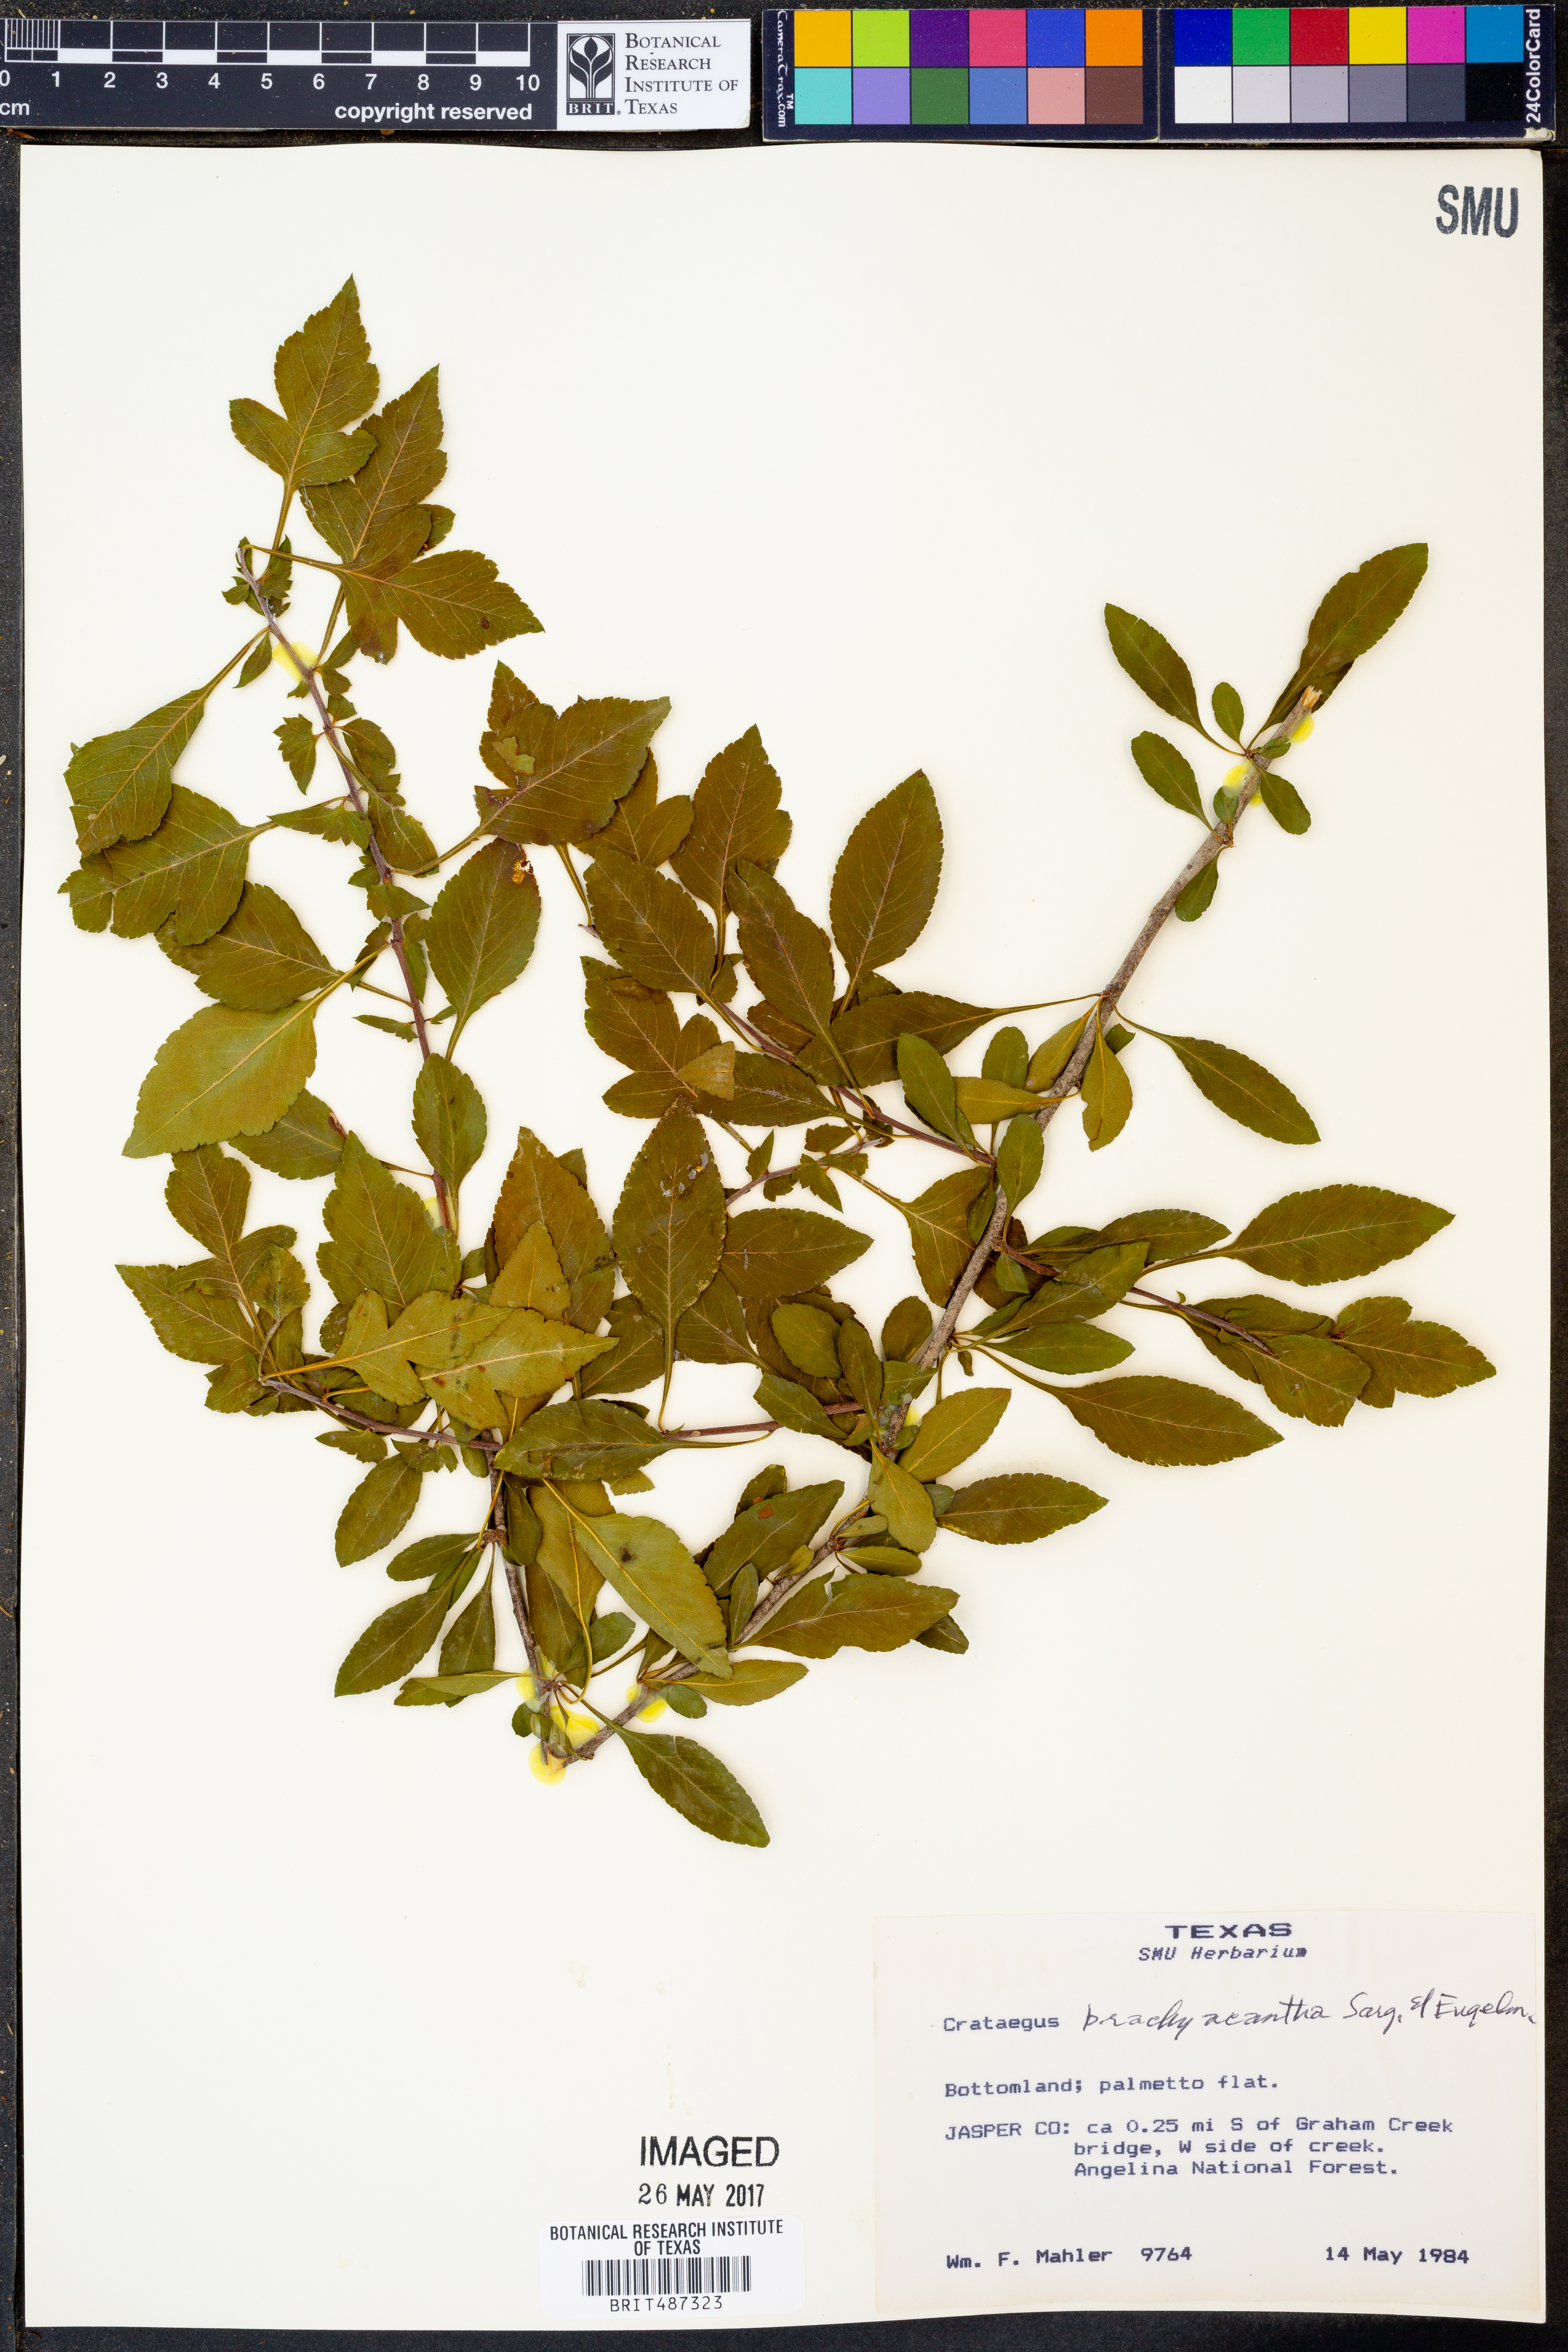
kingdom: Plantae
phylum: Tracheophyta
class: Magnoliopsida
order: Rosales
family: Rosaceae
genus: Crataegus
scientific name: Crataegus brachyacantha
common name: Blueberry-hawthorn
